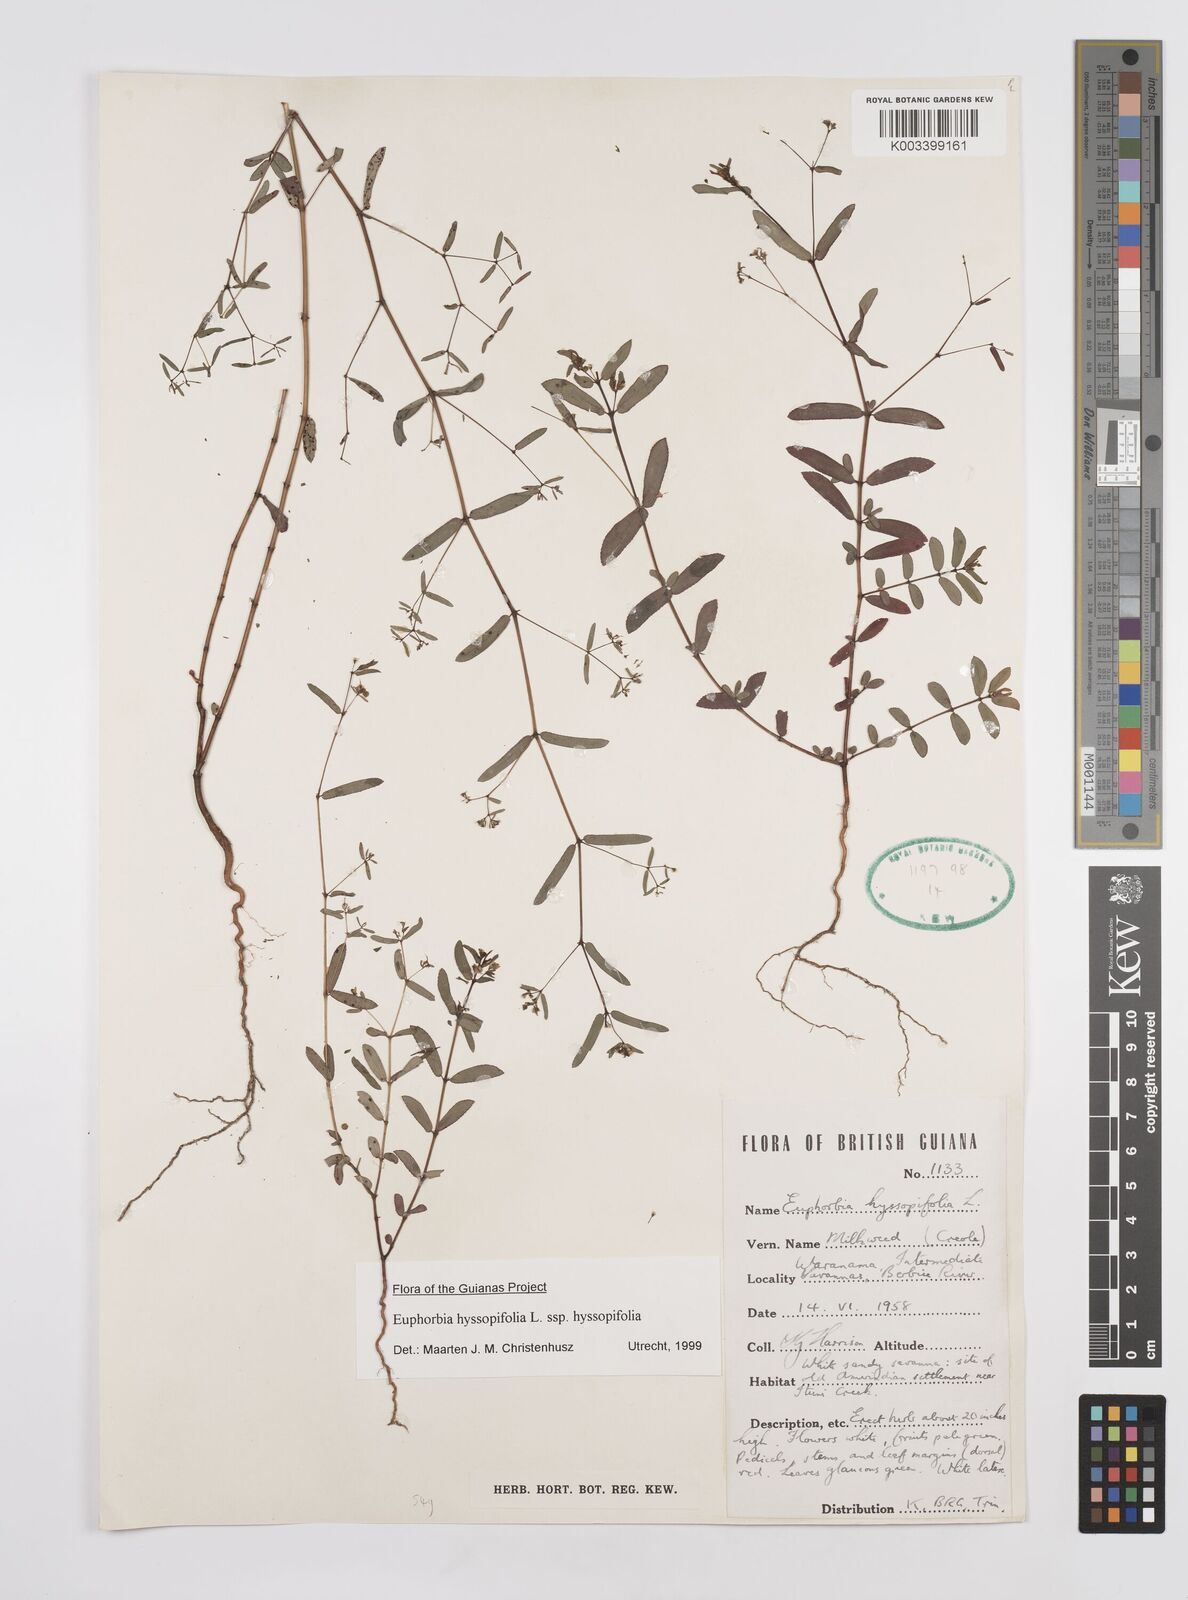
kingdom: Plantae
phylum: Tracheophyta
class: Magnoliopsida
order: Malpighiales
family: Euphorbiaceae
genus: Euphorbia
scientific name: Euphorbia hyssopifolia
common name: Hyssopleaf sandmat
